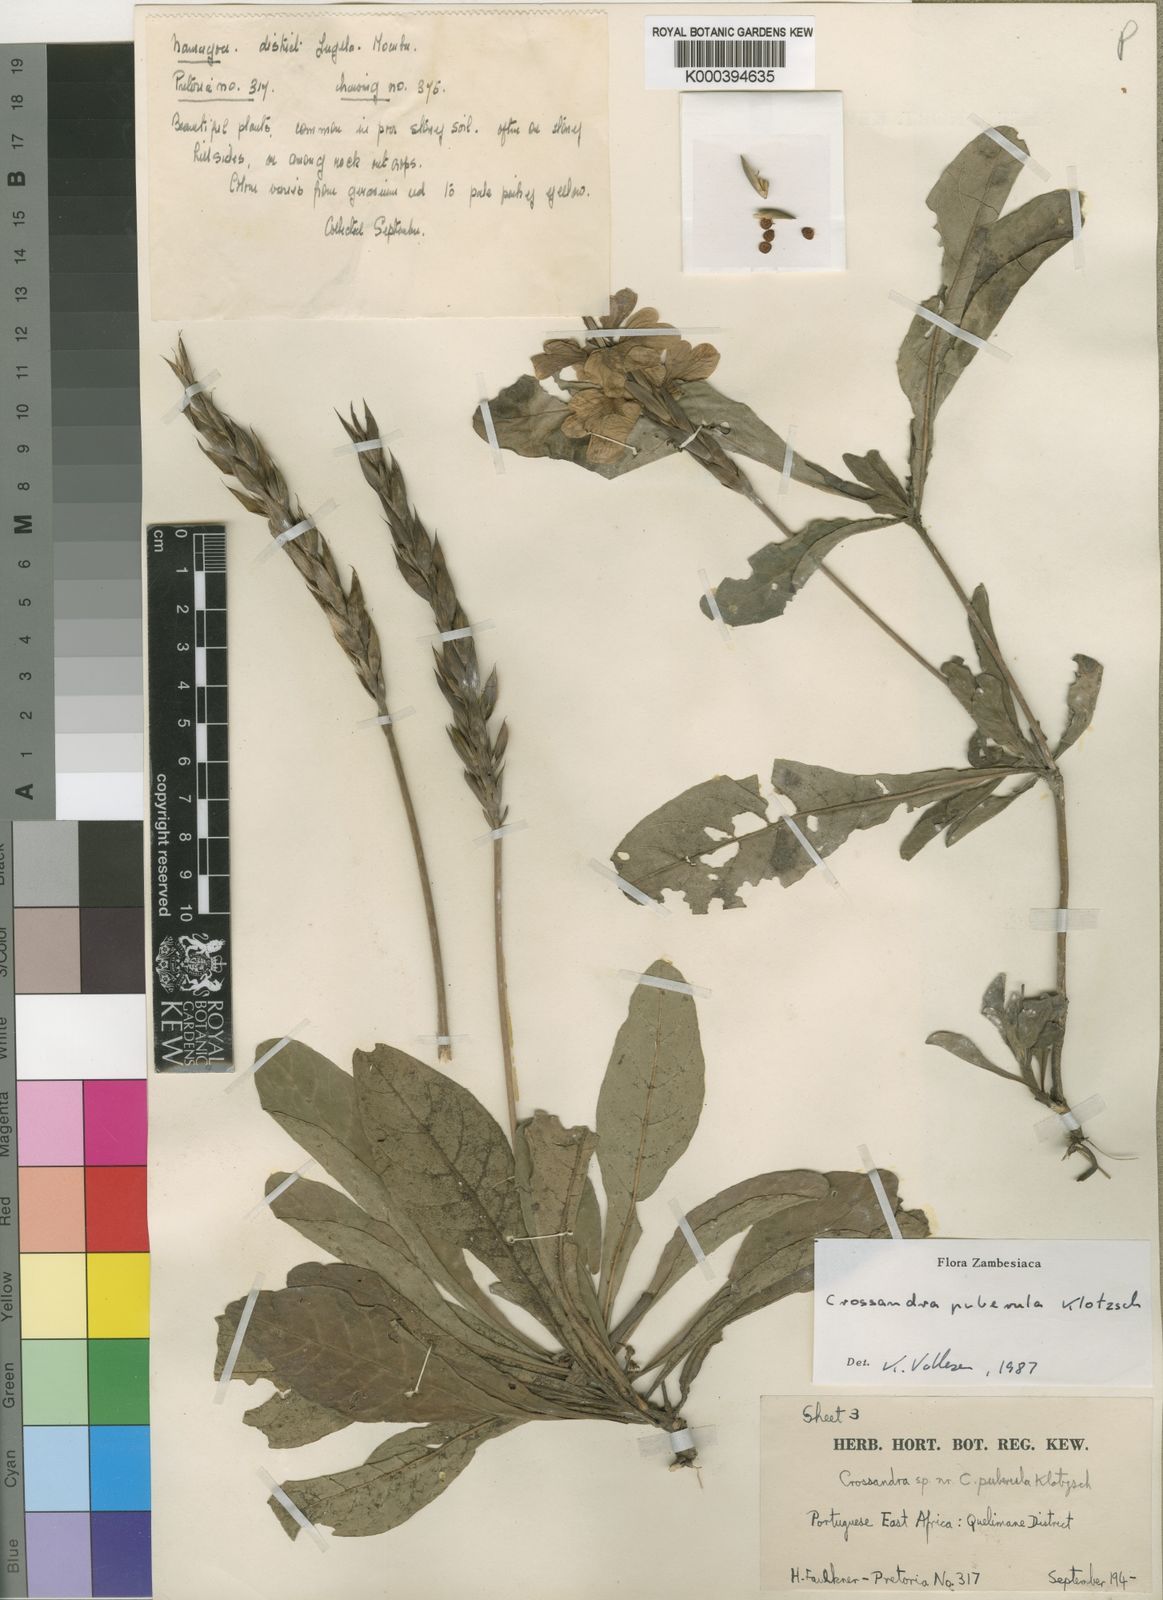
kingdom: Plantae
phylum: Tracheophyta
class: Magnoliopsida
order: Lamiales
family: Acanthaceae
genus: Crossandra
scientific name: Crossandra puberula
